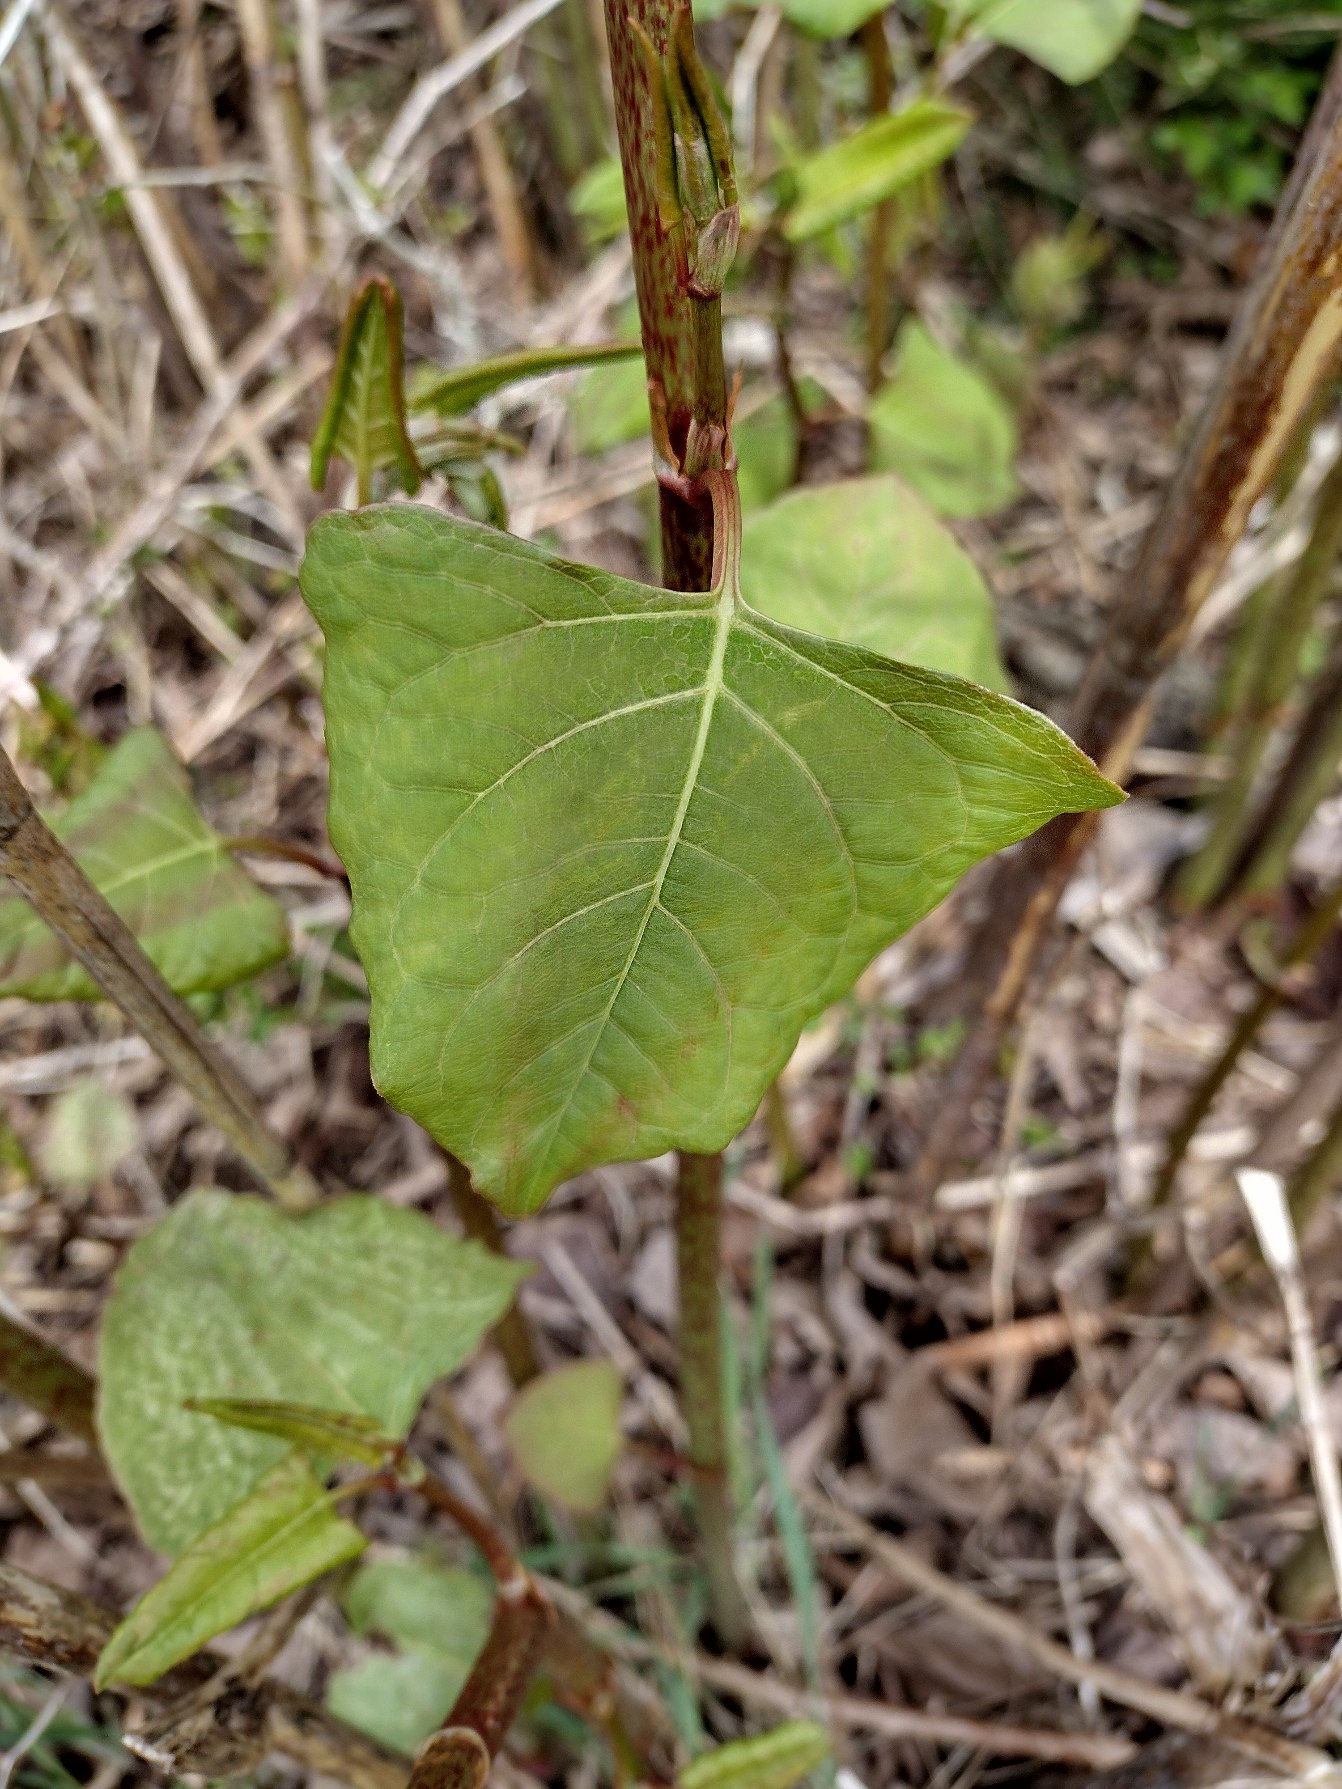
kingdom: Plantae
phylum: Tracheophyta
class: Magnoliopsida
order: Caryophyllales
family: Polygonaceae
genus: Reynoutria
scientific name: Reynoutria japonica
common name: Japan-pileurt
